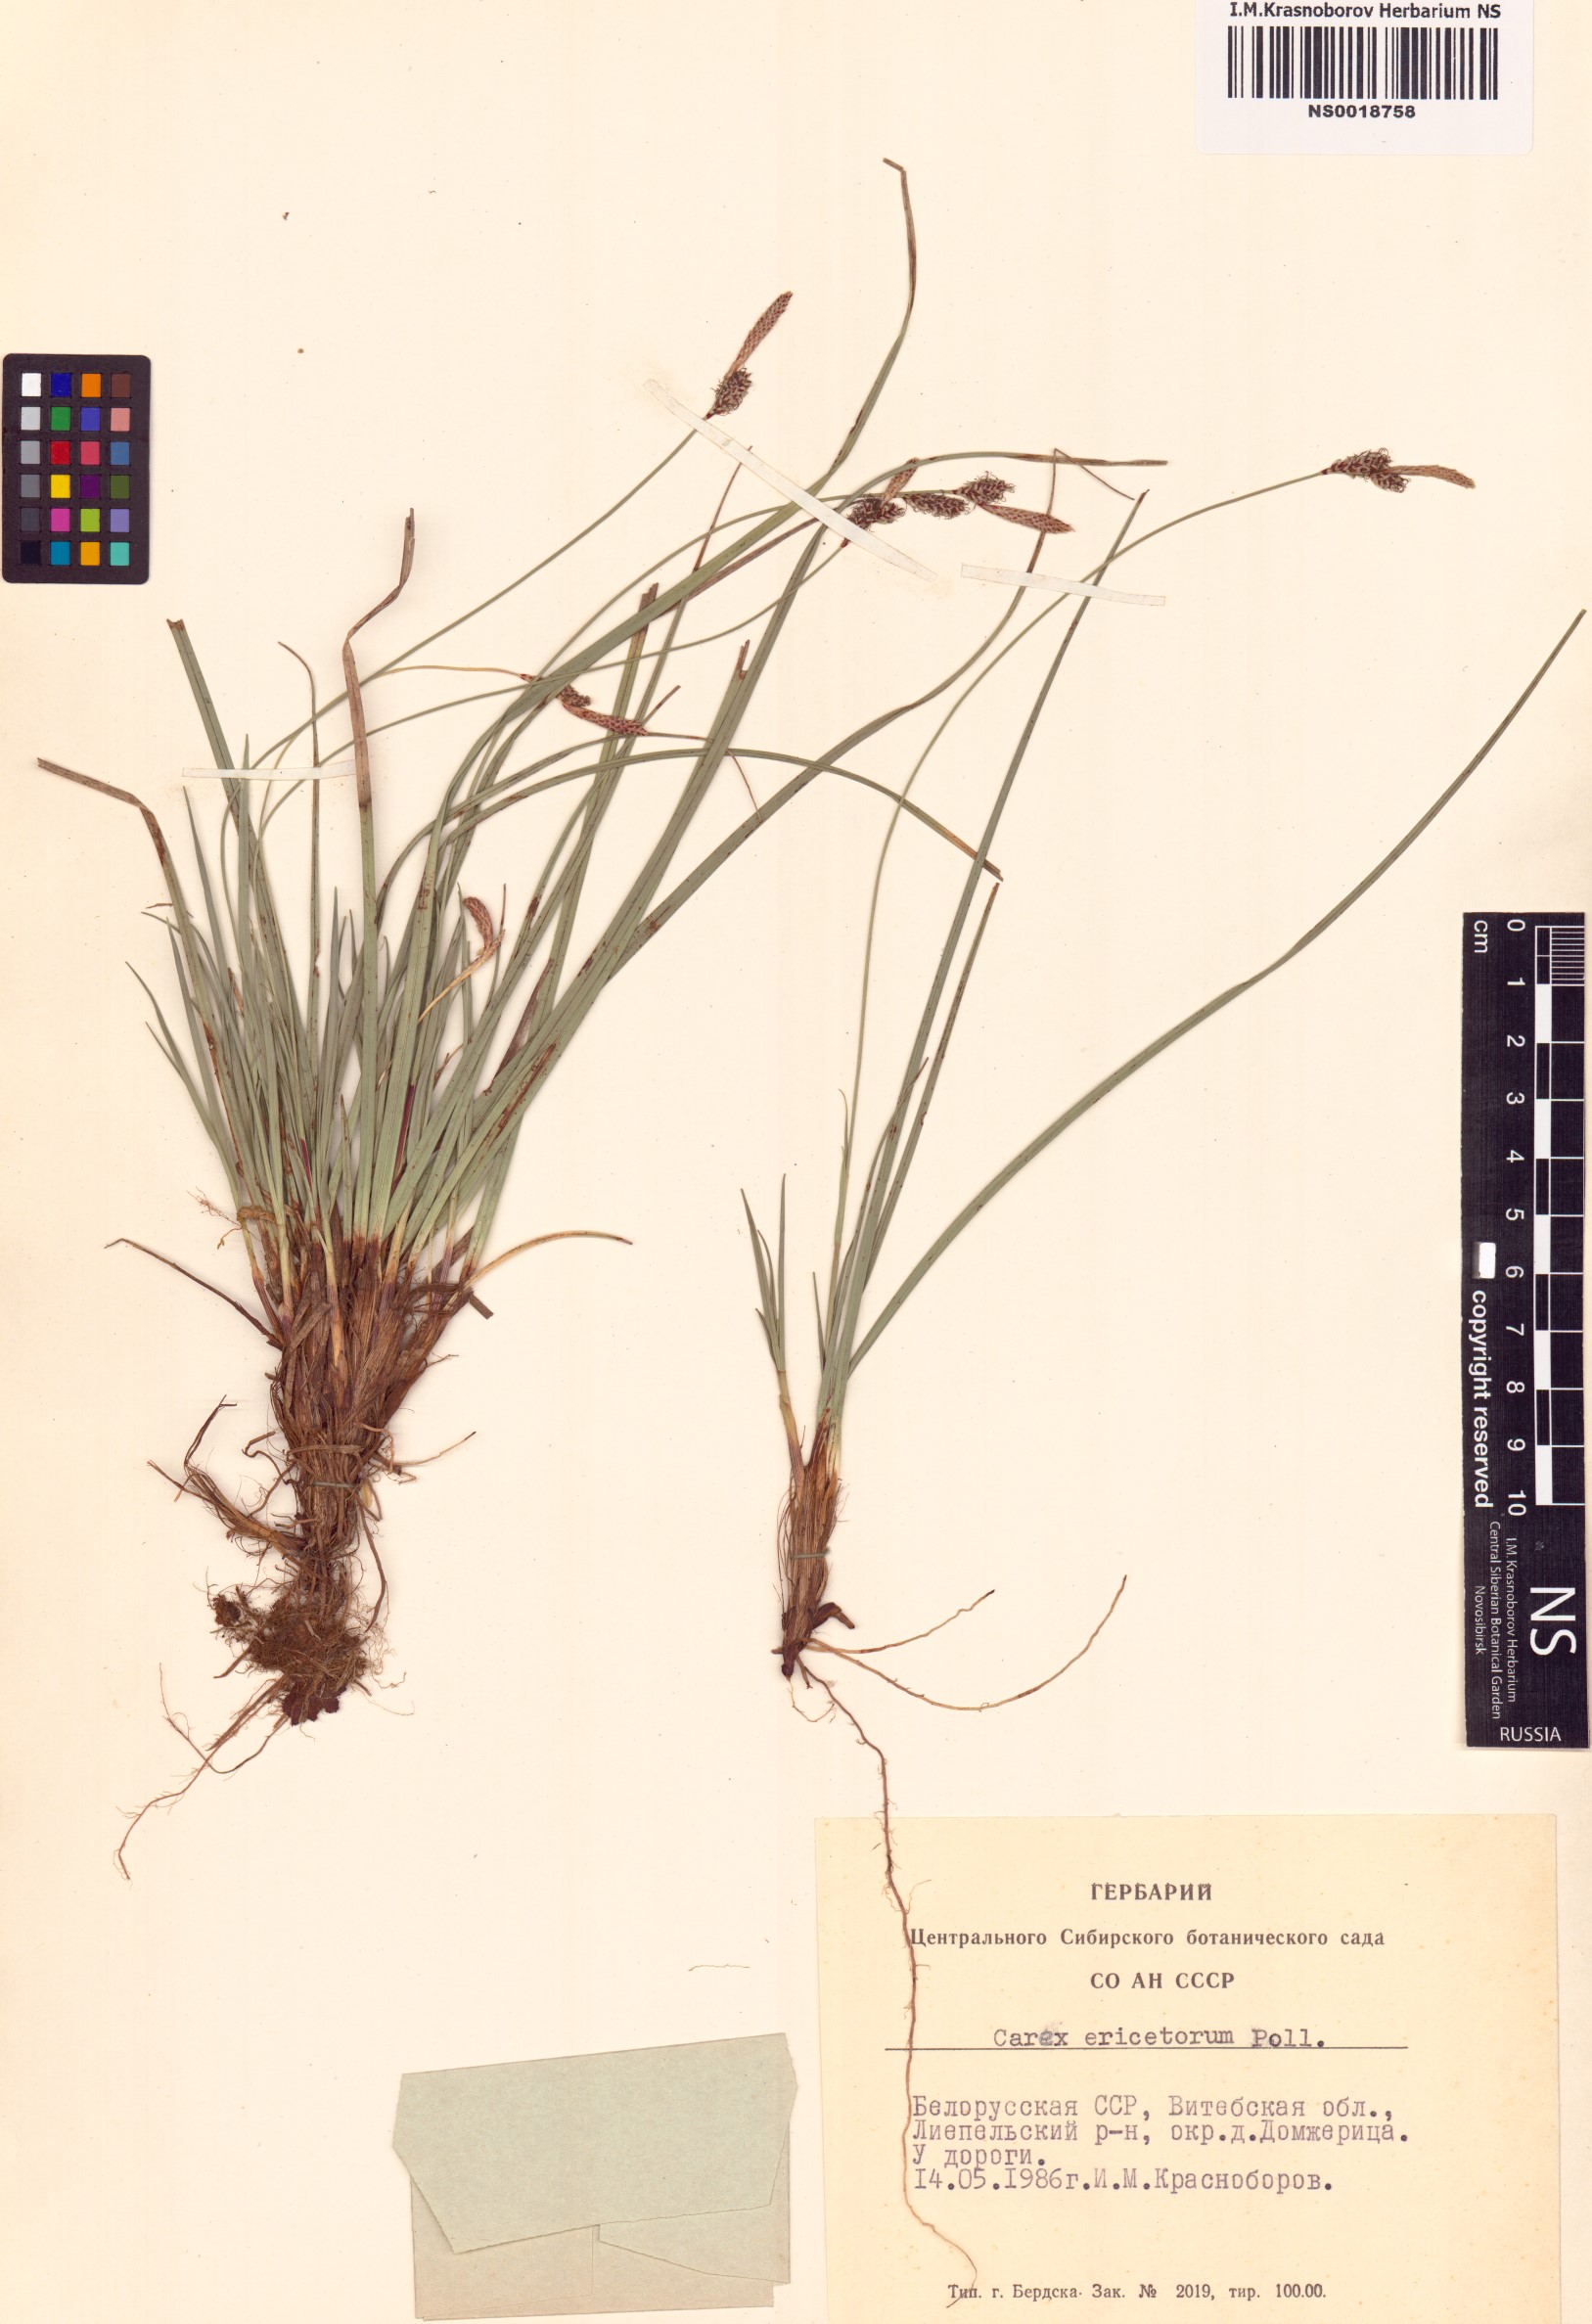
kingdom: Plantae
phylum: Tracheophyta
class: Liliopsida
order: Poales
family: Cyperaceae
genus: Carex
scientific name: Carex ericetorum
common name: Rare spring-sedge
